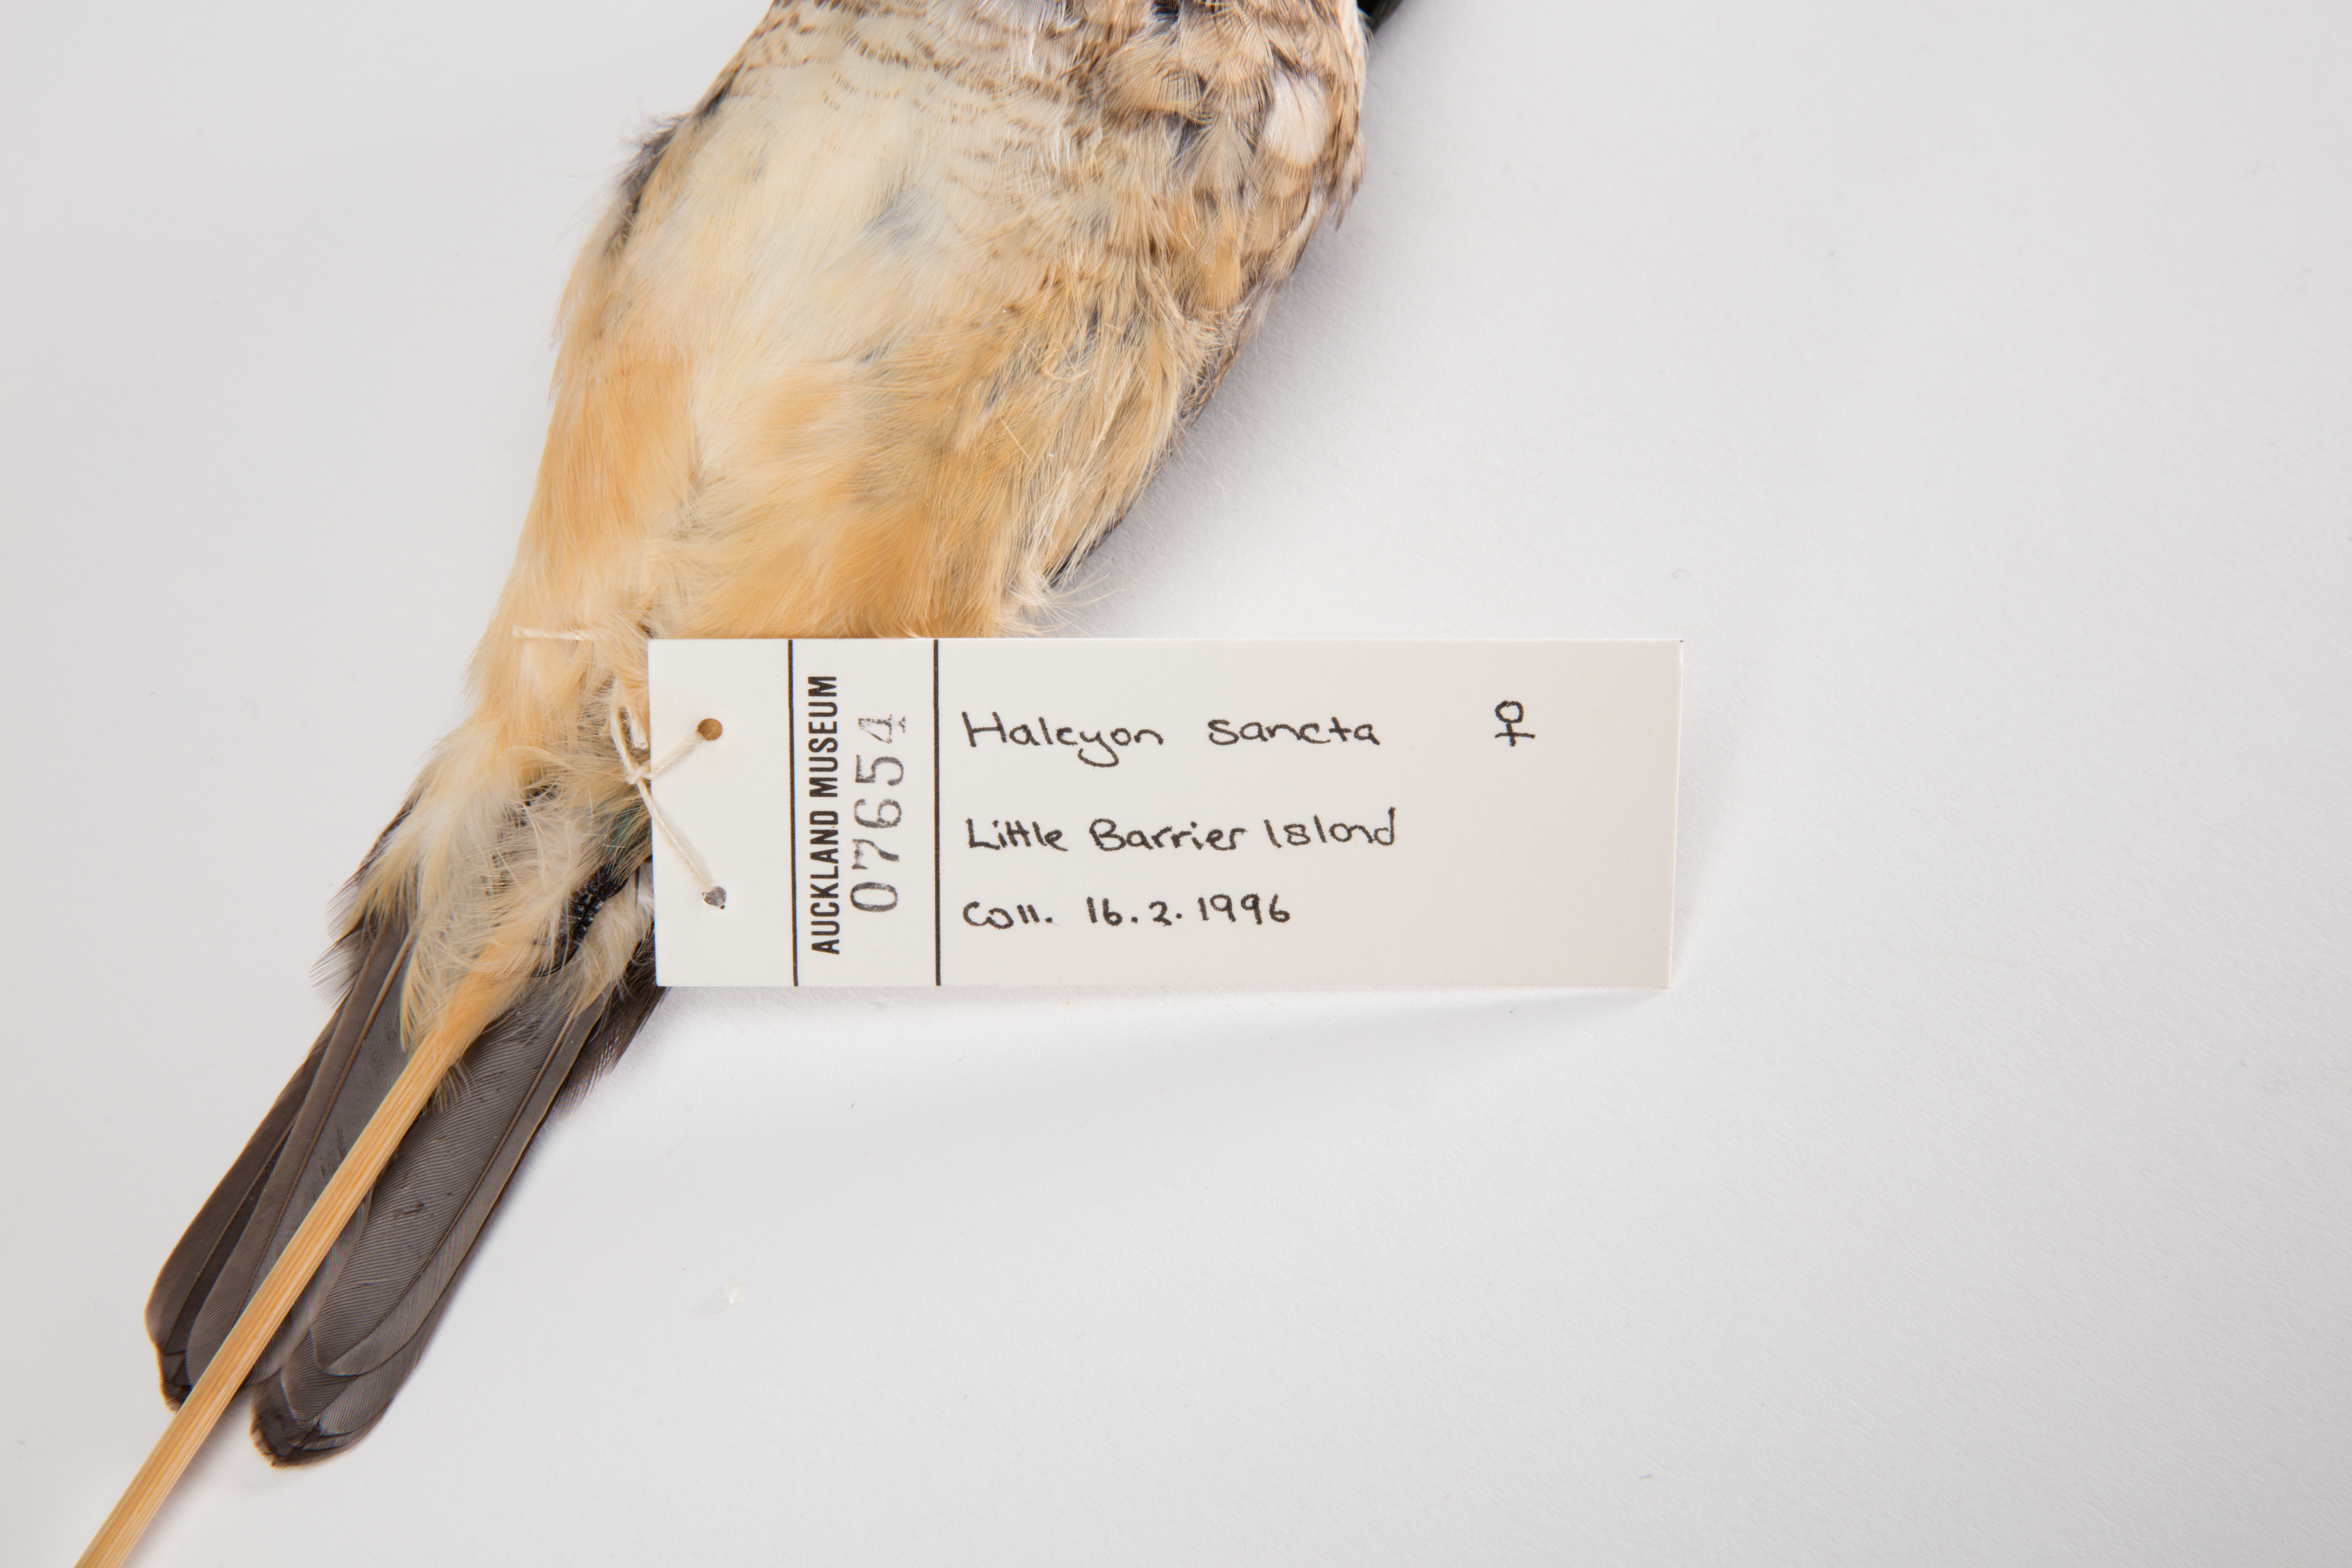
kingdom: Animalia
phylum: Chordata
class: Aves
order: Coraciiformes
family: Alcedinidae
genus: Todiramphus
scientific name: Todiramphus sanctus
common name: Sacred kingfisher
